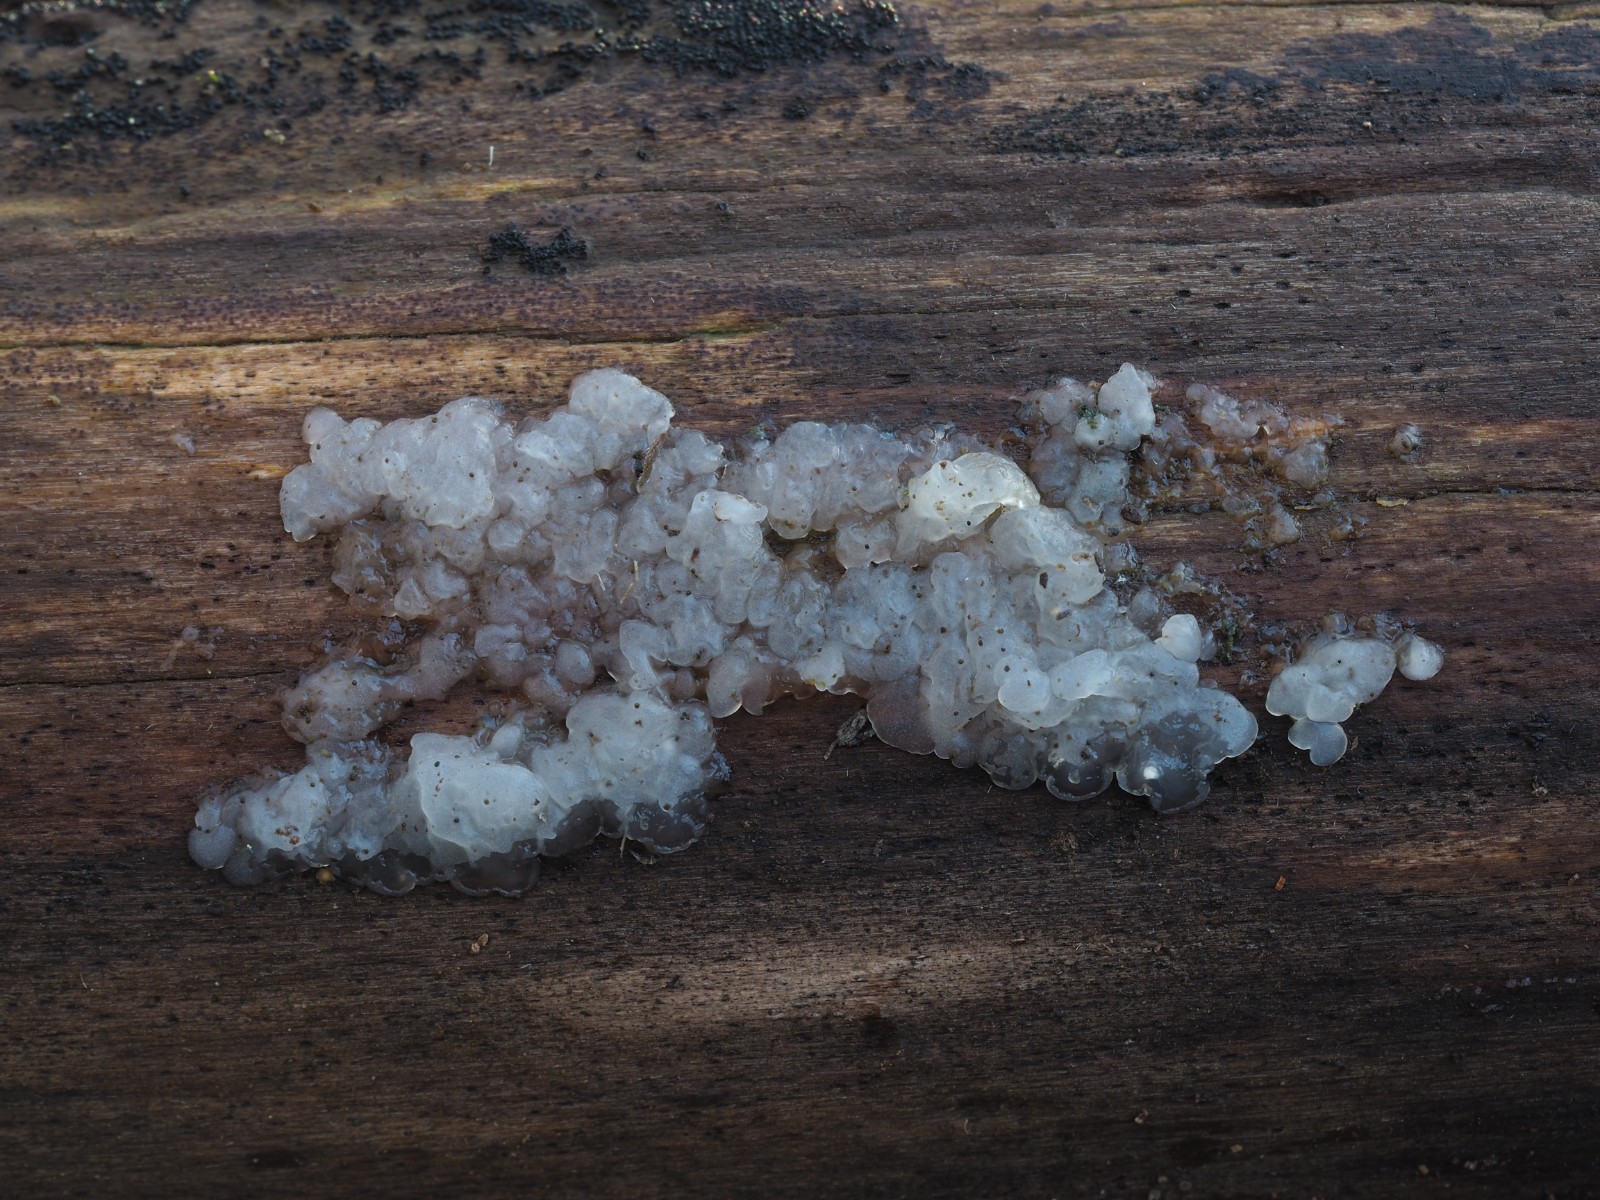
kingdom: Fungi
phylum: Basidiomycota
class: Agaricomycetes
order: Auriculariales
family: Hyaloriaceae
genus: Myxarium
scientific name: Myxarium nucleatum
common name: klar bævretop
